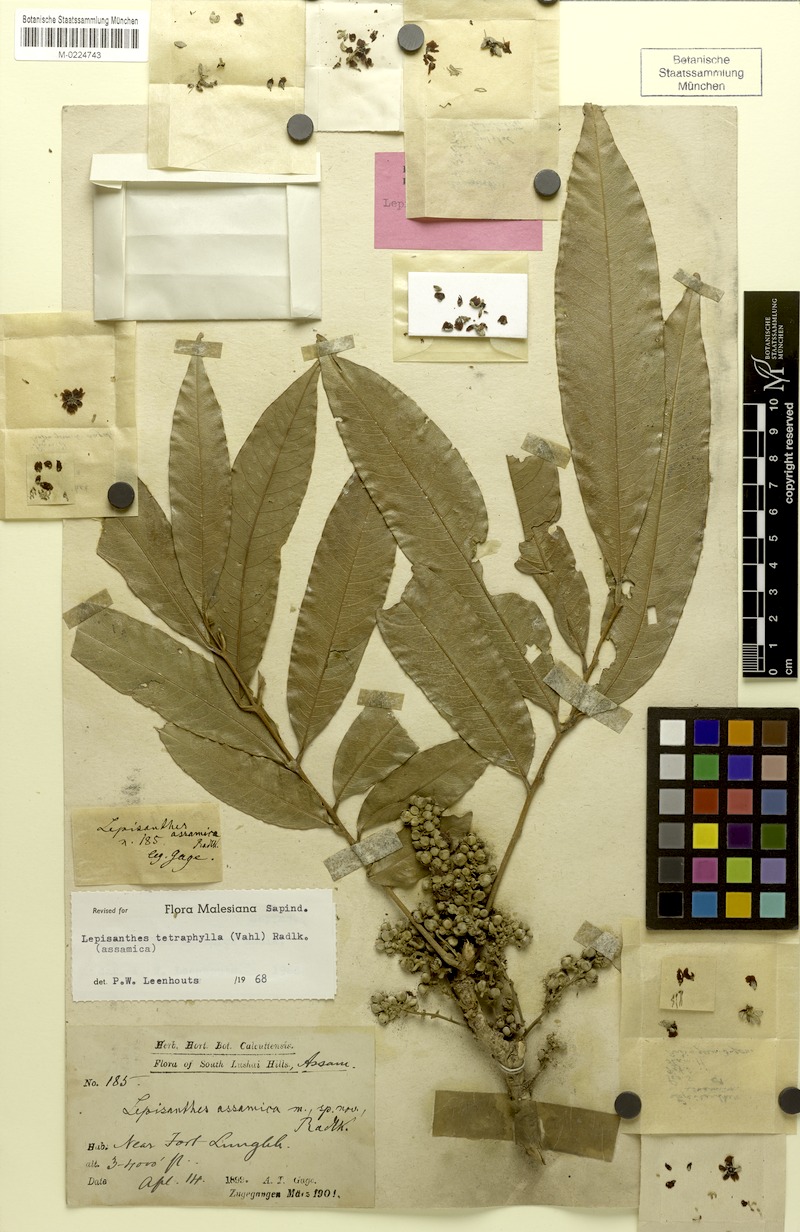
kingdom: Plantae
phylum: Tracheophyta
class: Magnoliopsida
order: Sapindales
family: Sapindaceae
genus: Lepisanthes
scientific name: Lepisanthes tetraphylla
